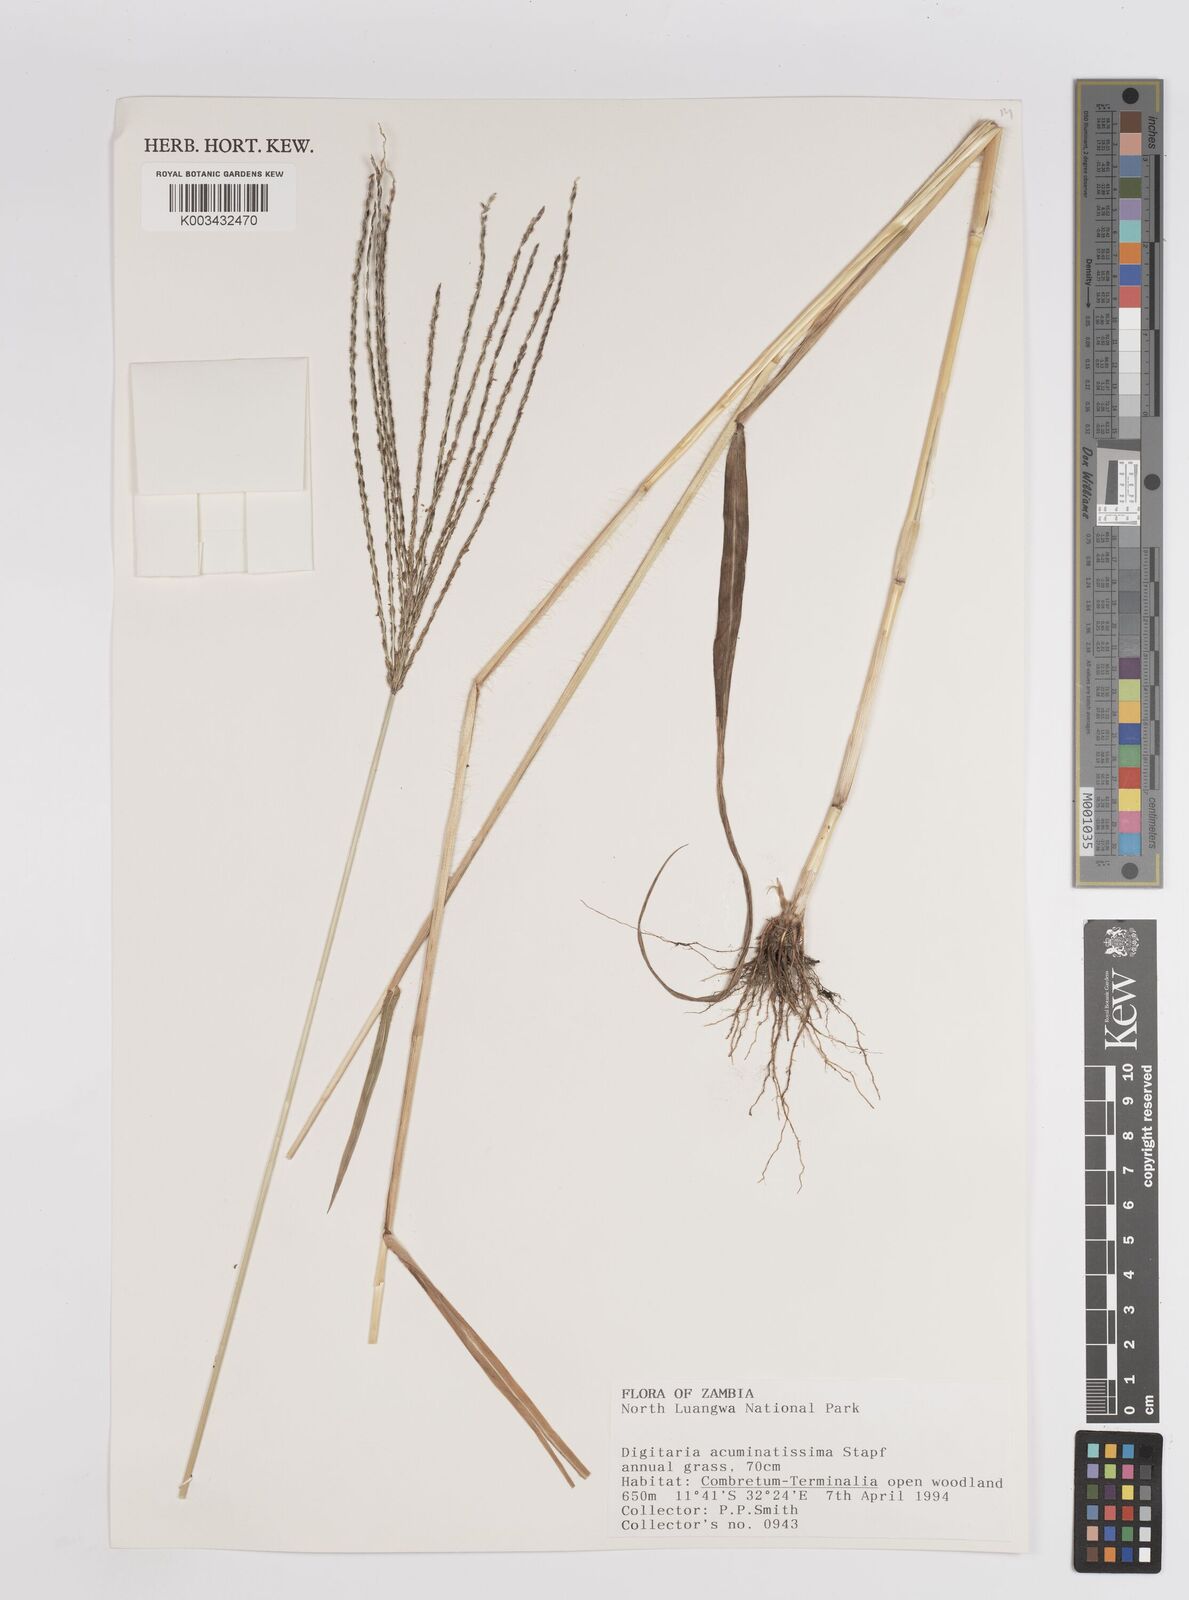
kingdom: Plantae
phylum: Tracheophyta
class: Liliopsida
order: Poales
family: Poaceae
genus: Digitaria
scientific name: Digitaria acuminatissima
